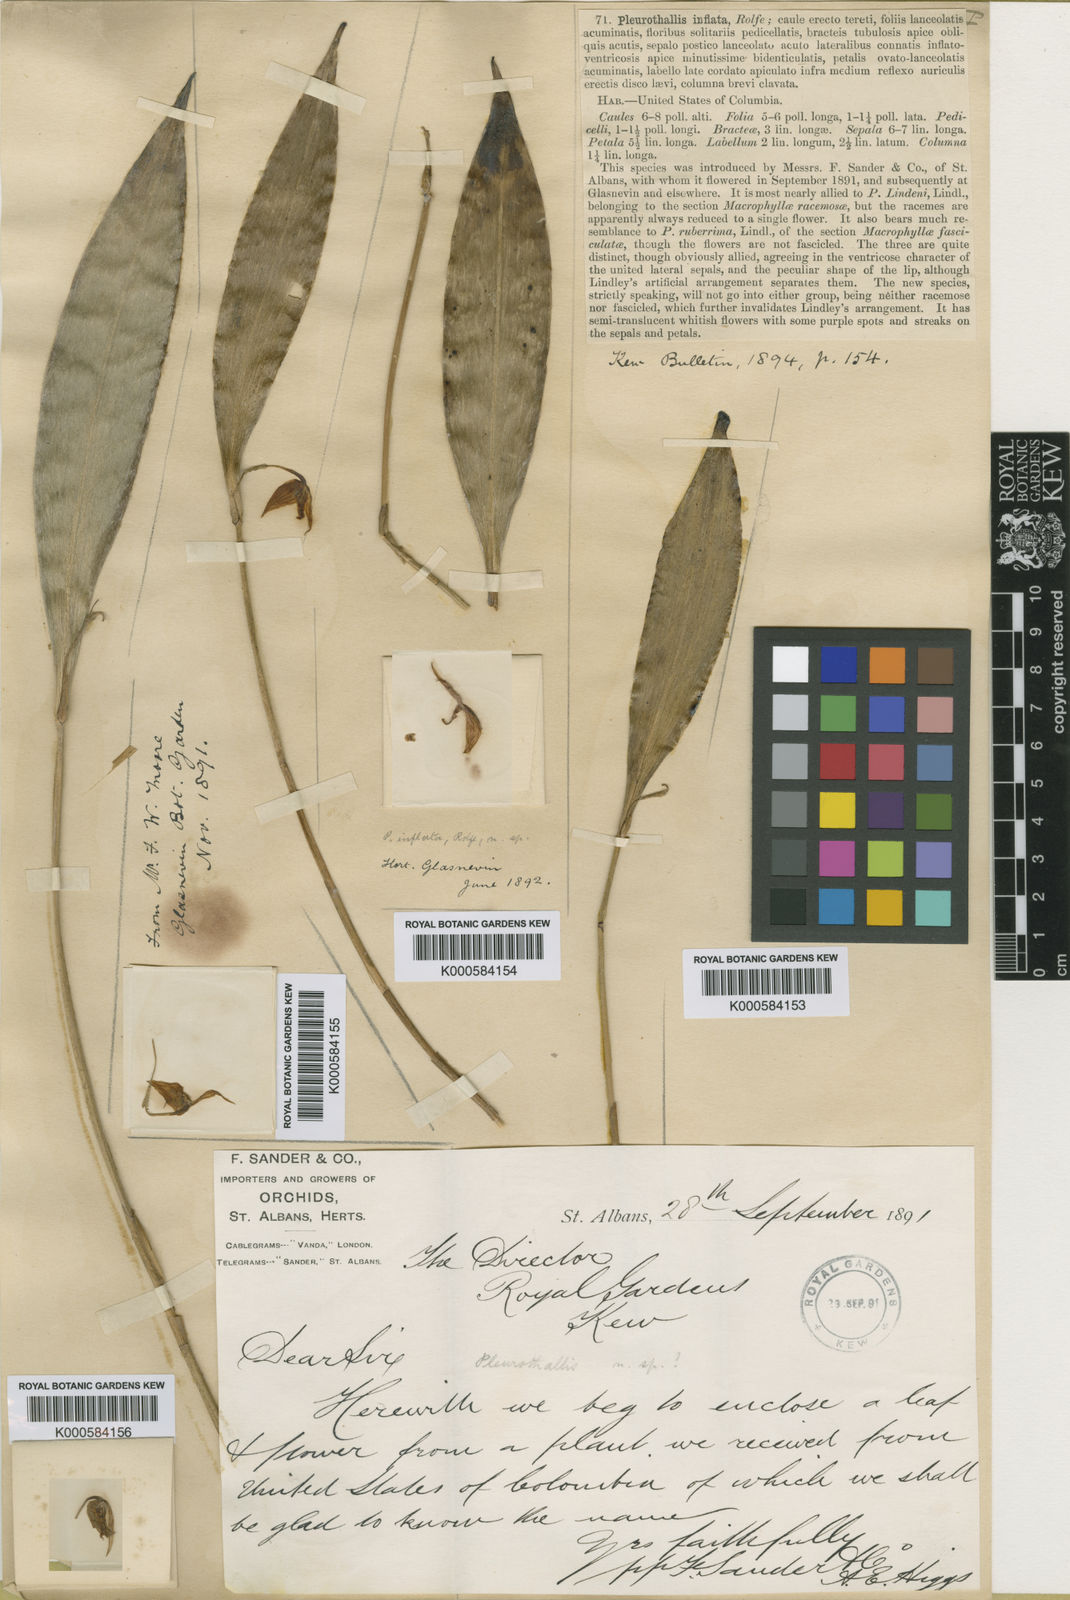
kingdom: Plantae
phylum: Tracheophyta
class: Liliopsida
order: Asparagales
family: Orchidaceae
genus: Pleurothallis
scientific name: Pleurothallis inflata
